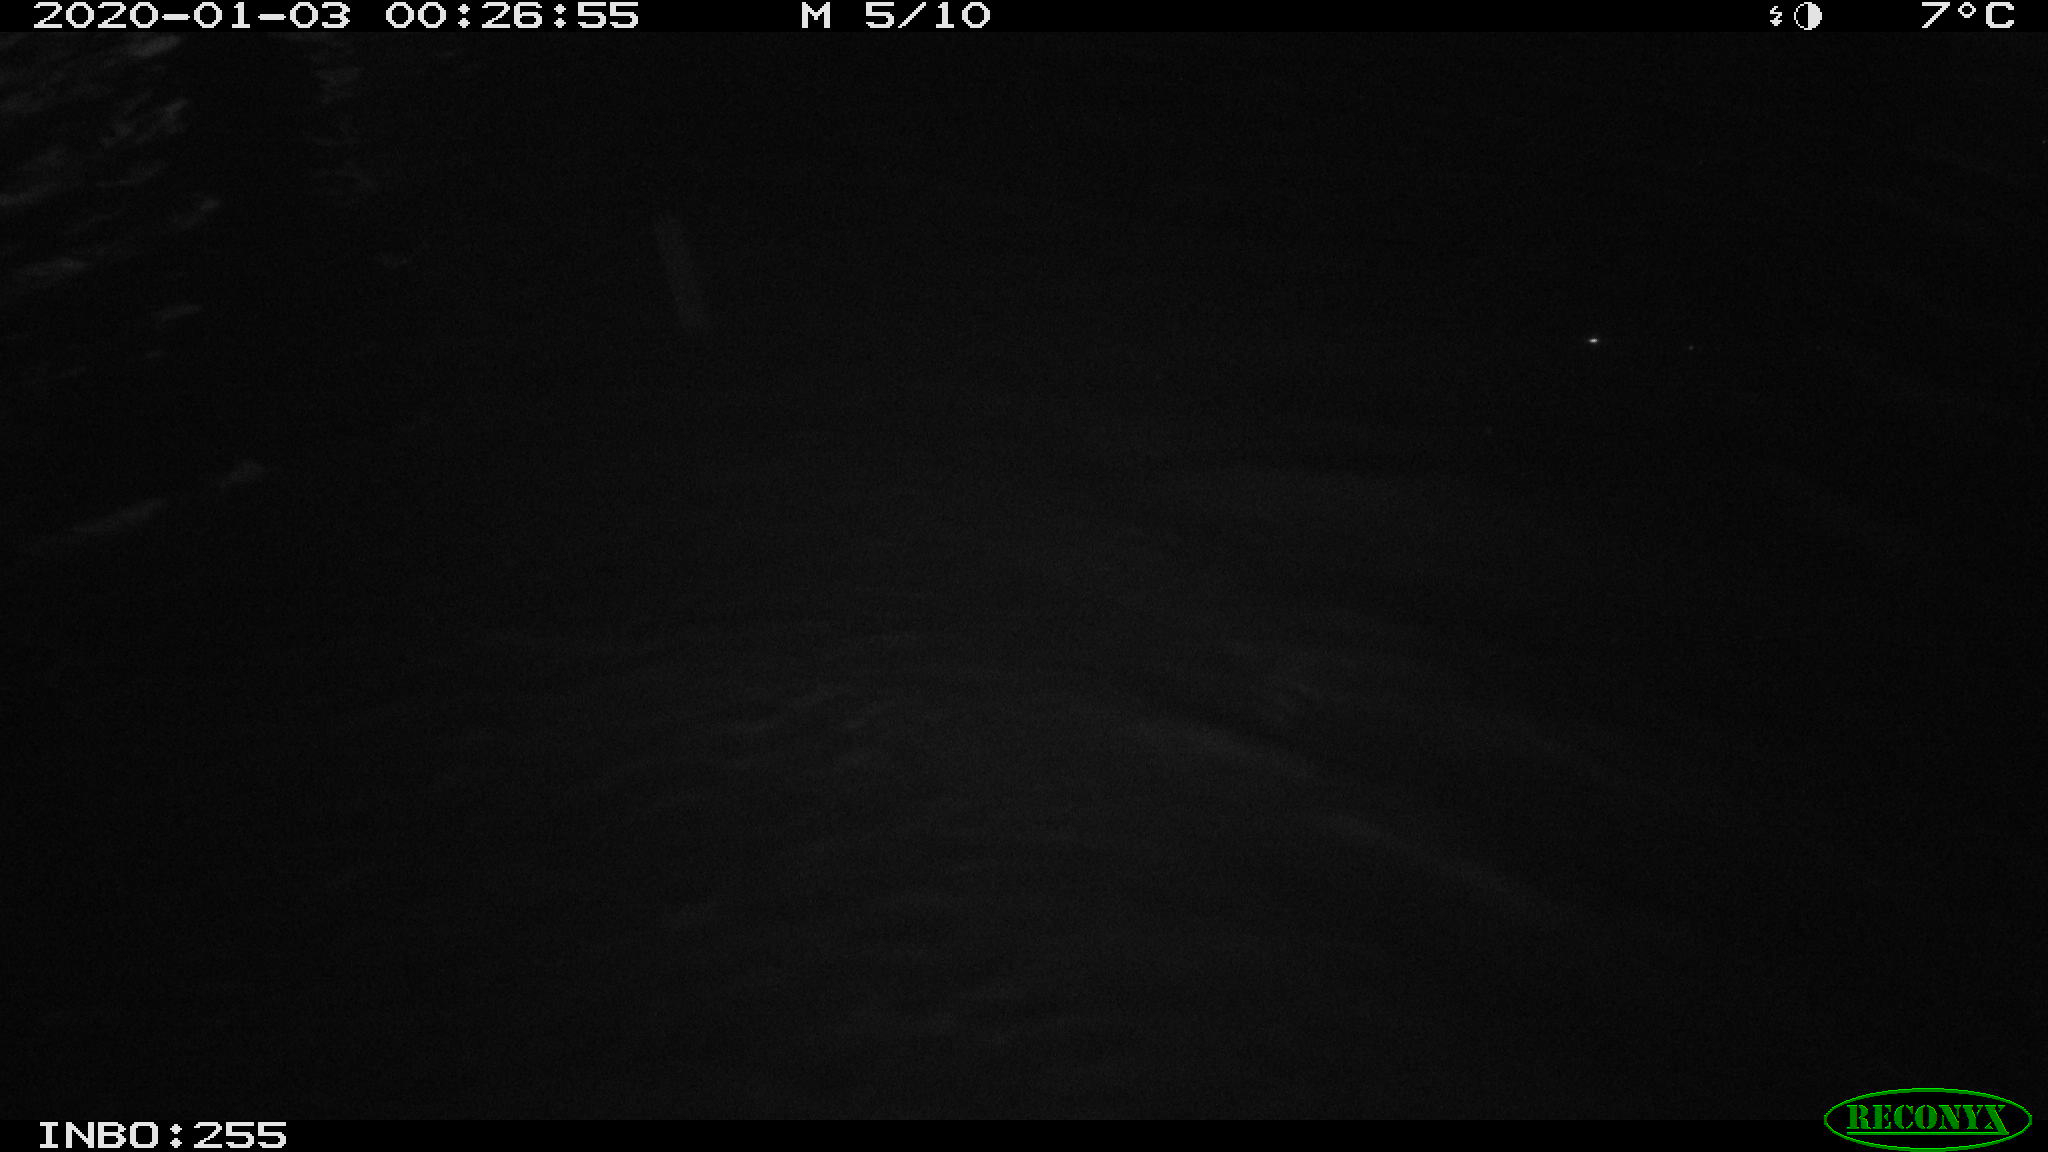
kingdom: Animalia
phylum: Chordata
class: Aves
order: Anseriformes
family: Anatidae
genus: Anas
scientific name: Anas platyrhynchos
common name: Mallard
